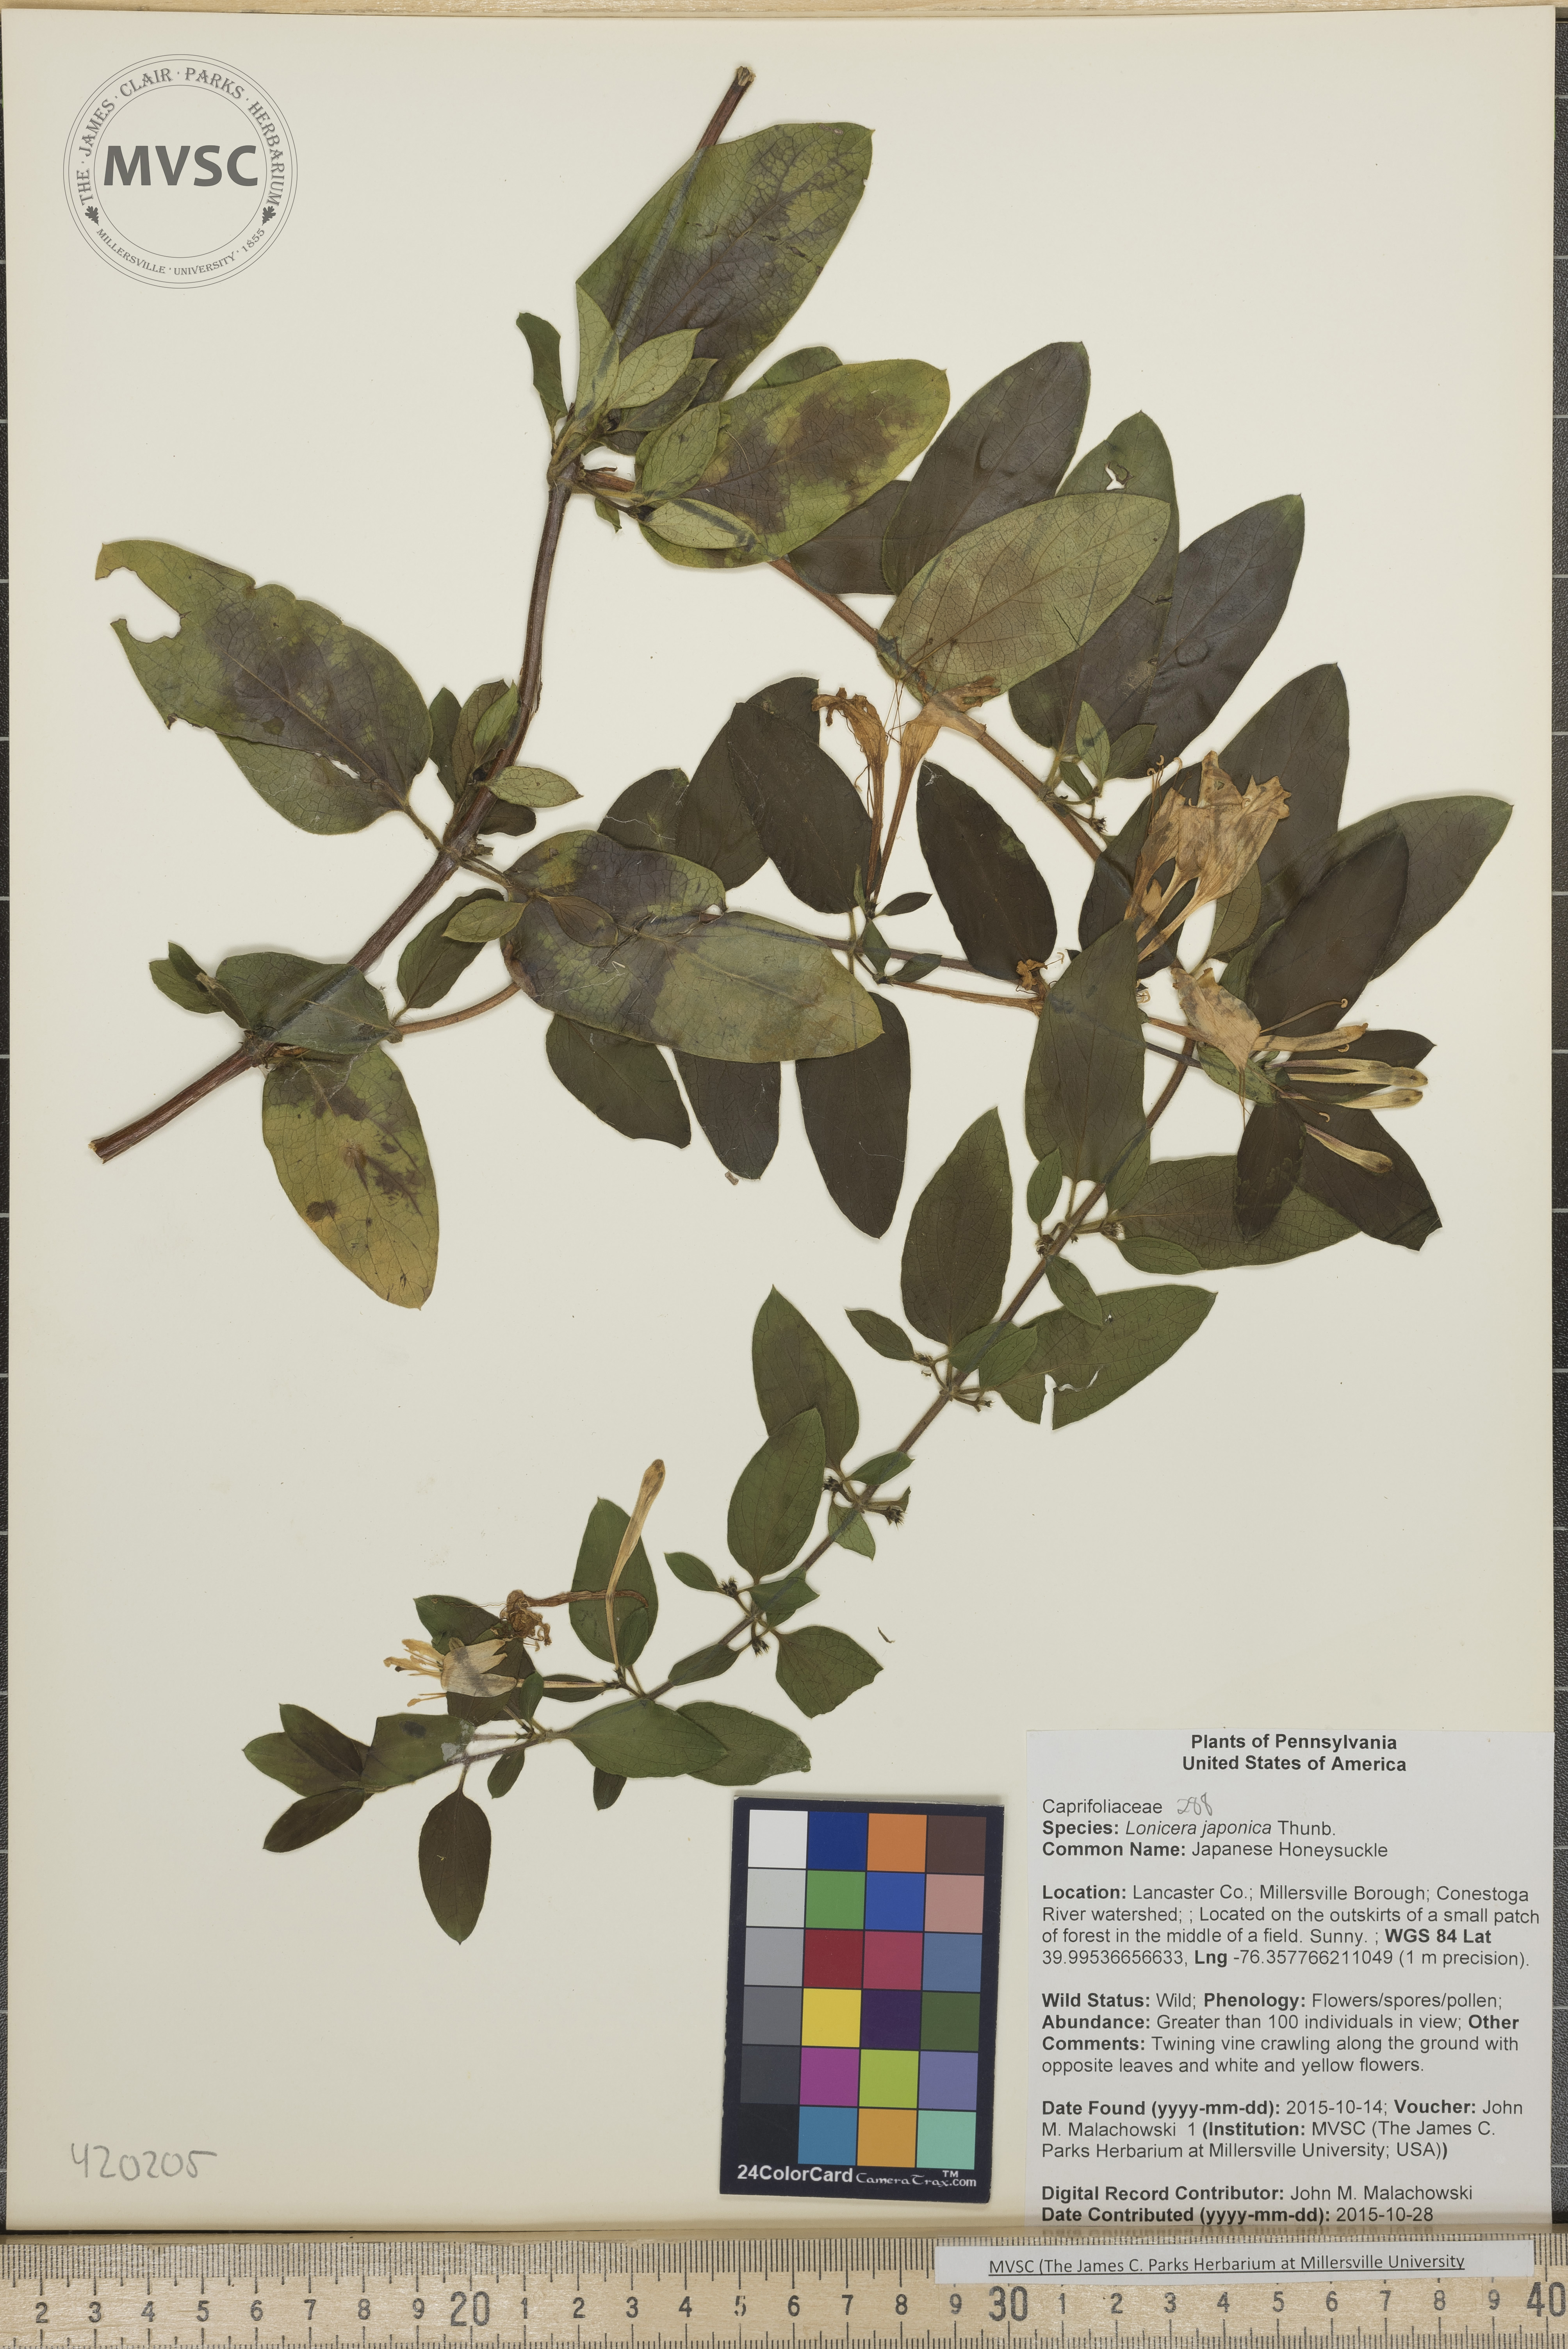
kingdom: Plantae
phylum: Tracheophyta
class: Magnoliopsida
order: Dipsacales
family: Caprifoliaceae
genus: Lonicera
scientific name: Lonicera japonica
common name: Japanese Honeysuckle
